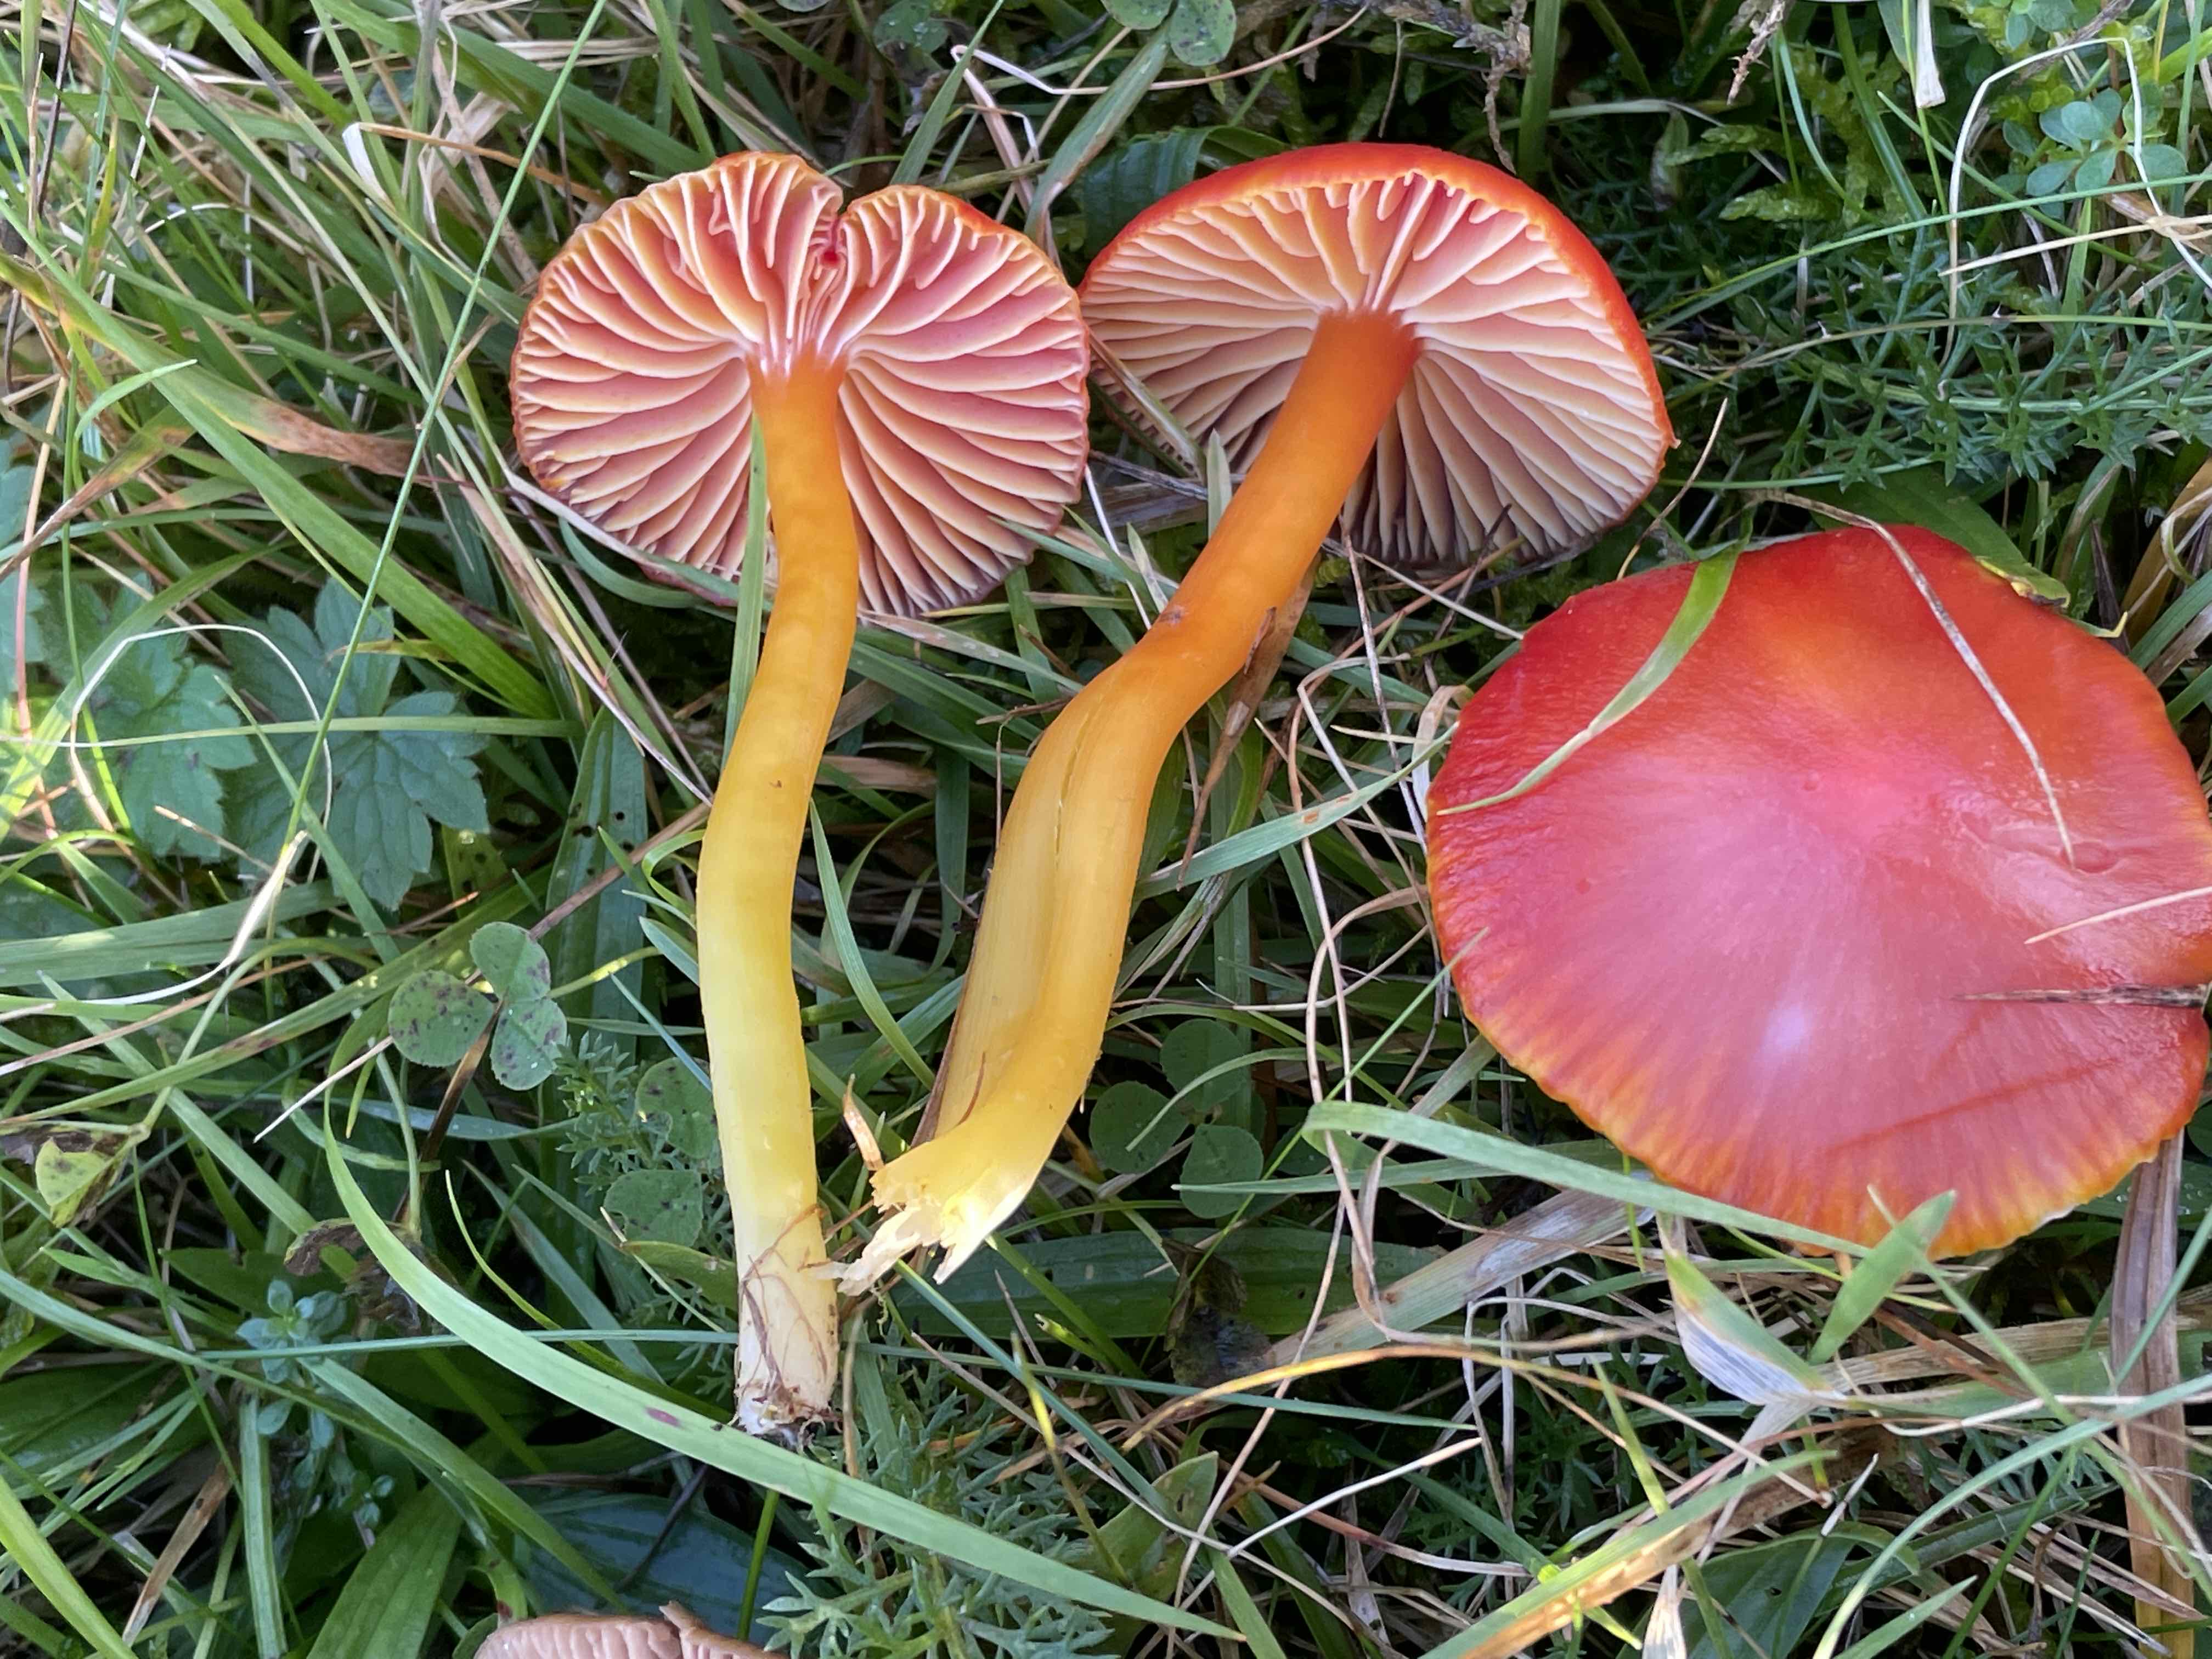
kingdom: Fungi
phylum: Basidiomycota
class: Agaricomycetes
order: Agaricales
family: Hygrophoraceae
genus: Hygrocybe
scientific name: Hygrocybe coccinea
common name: cinnober-vokshat
